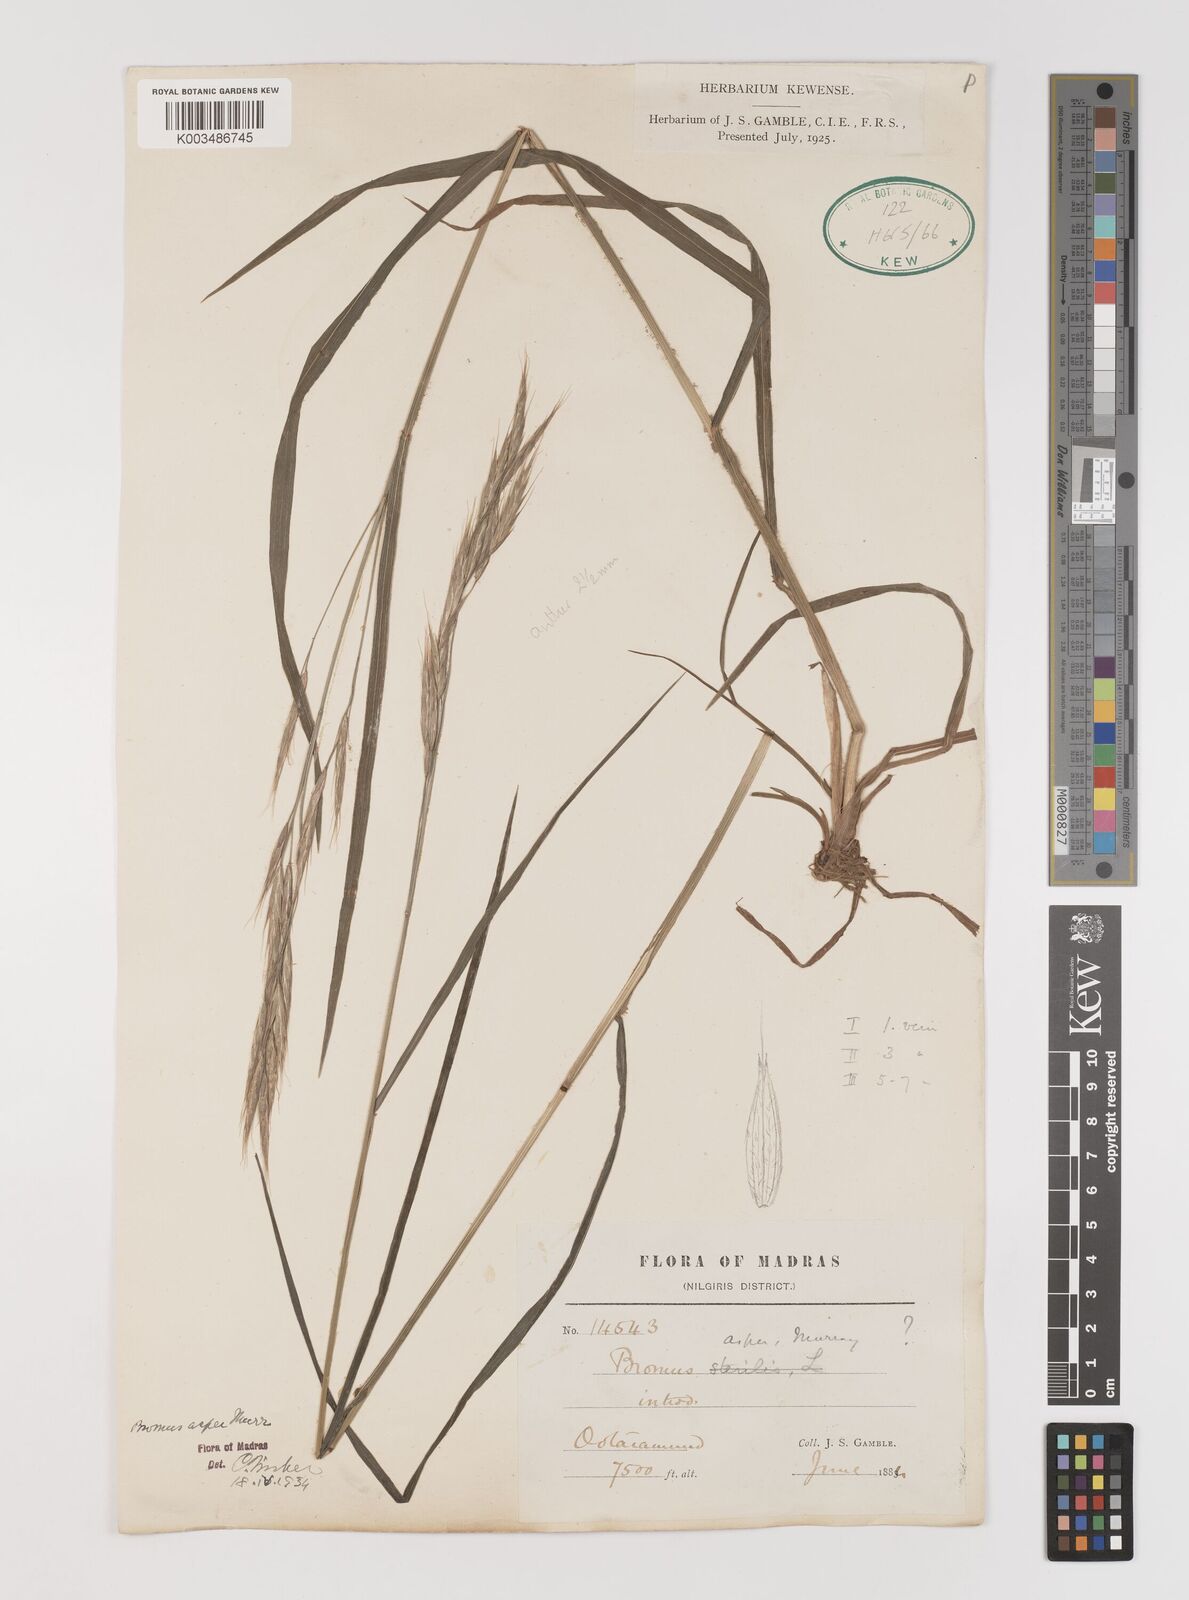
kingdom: Plantae
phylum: Tracheophyta
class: Liliopsida
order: Poales
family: Poaceae
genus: Brachypodium
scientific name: Brachypodium retusum
